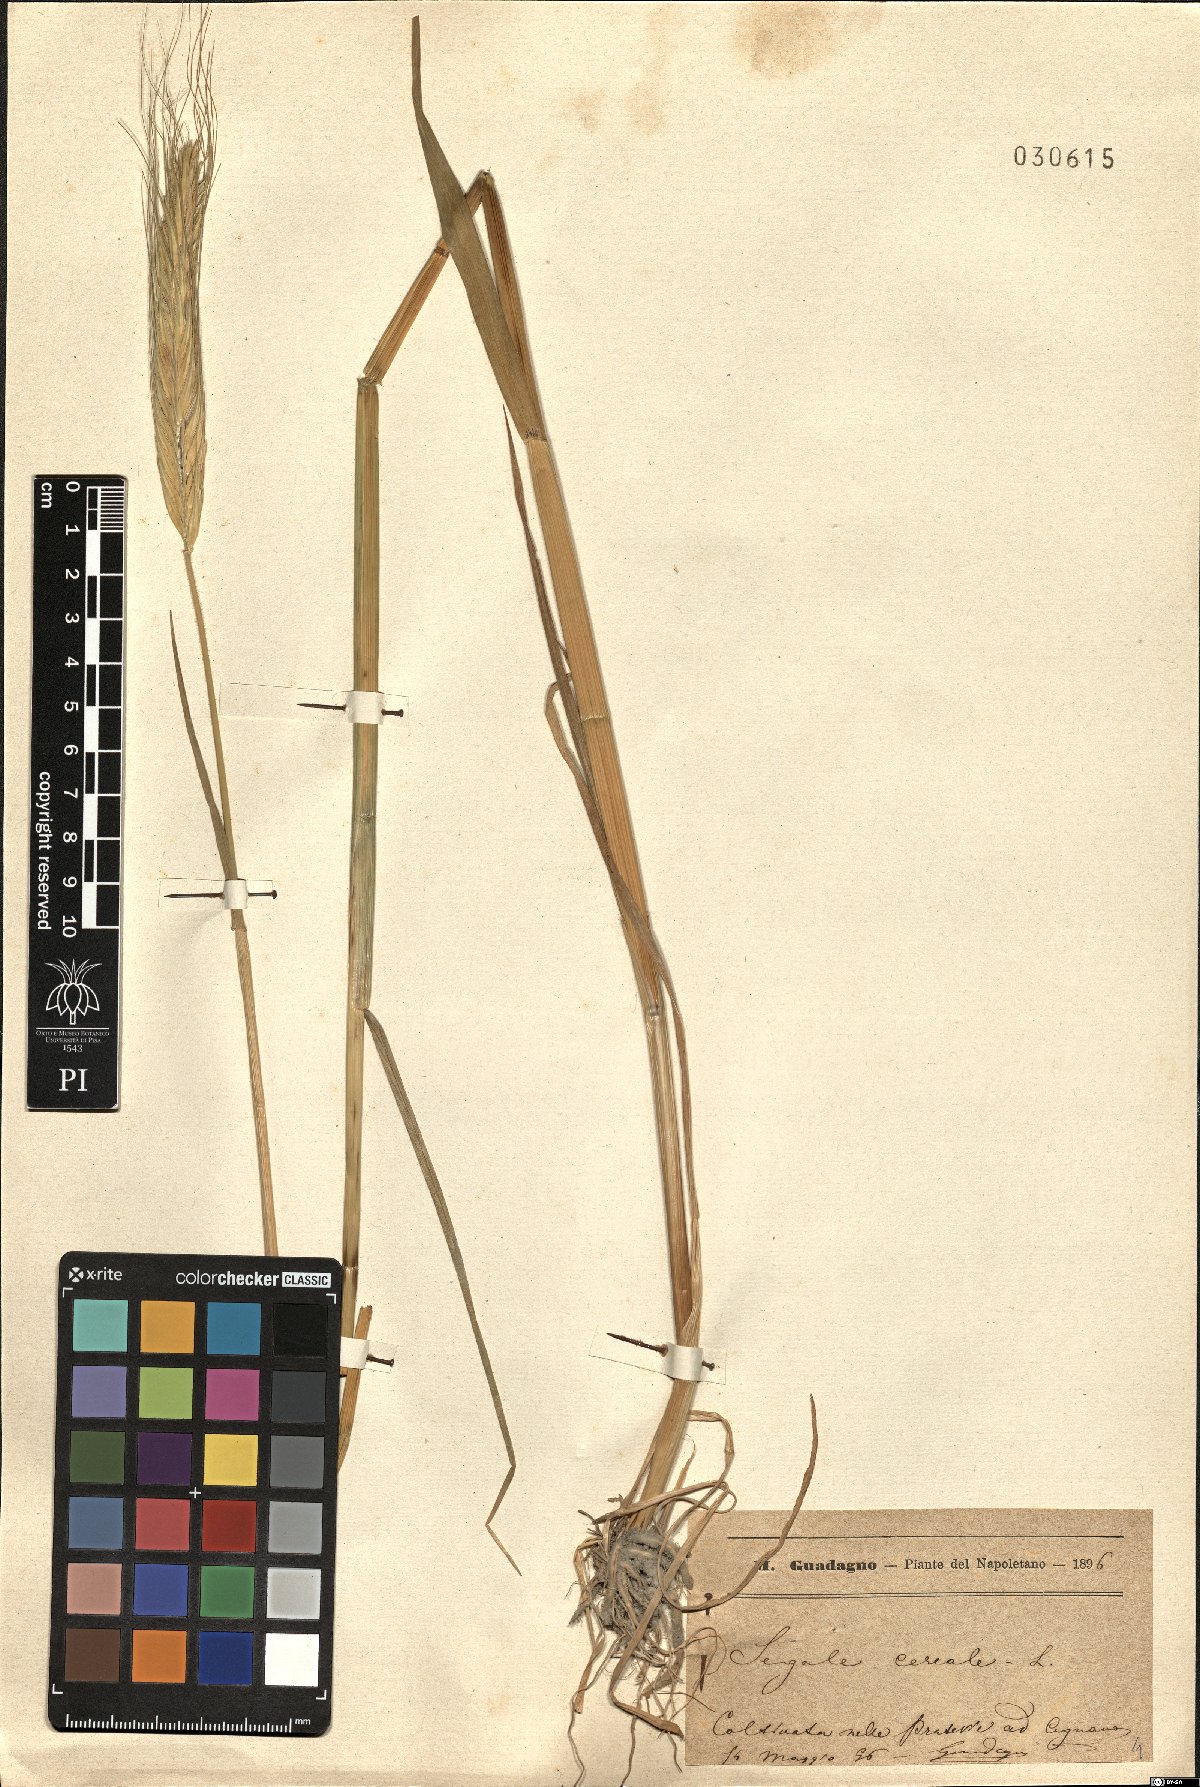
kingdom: Plantae
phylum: Tracheophyta
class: Liliopsida
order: Poales
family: Poaceae
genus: Secale
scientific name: Secale cereale
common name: Rye
